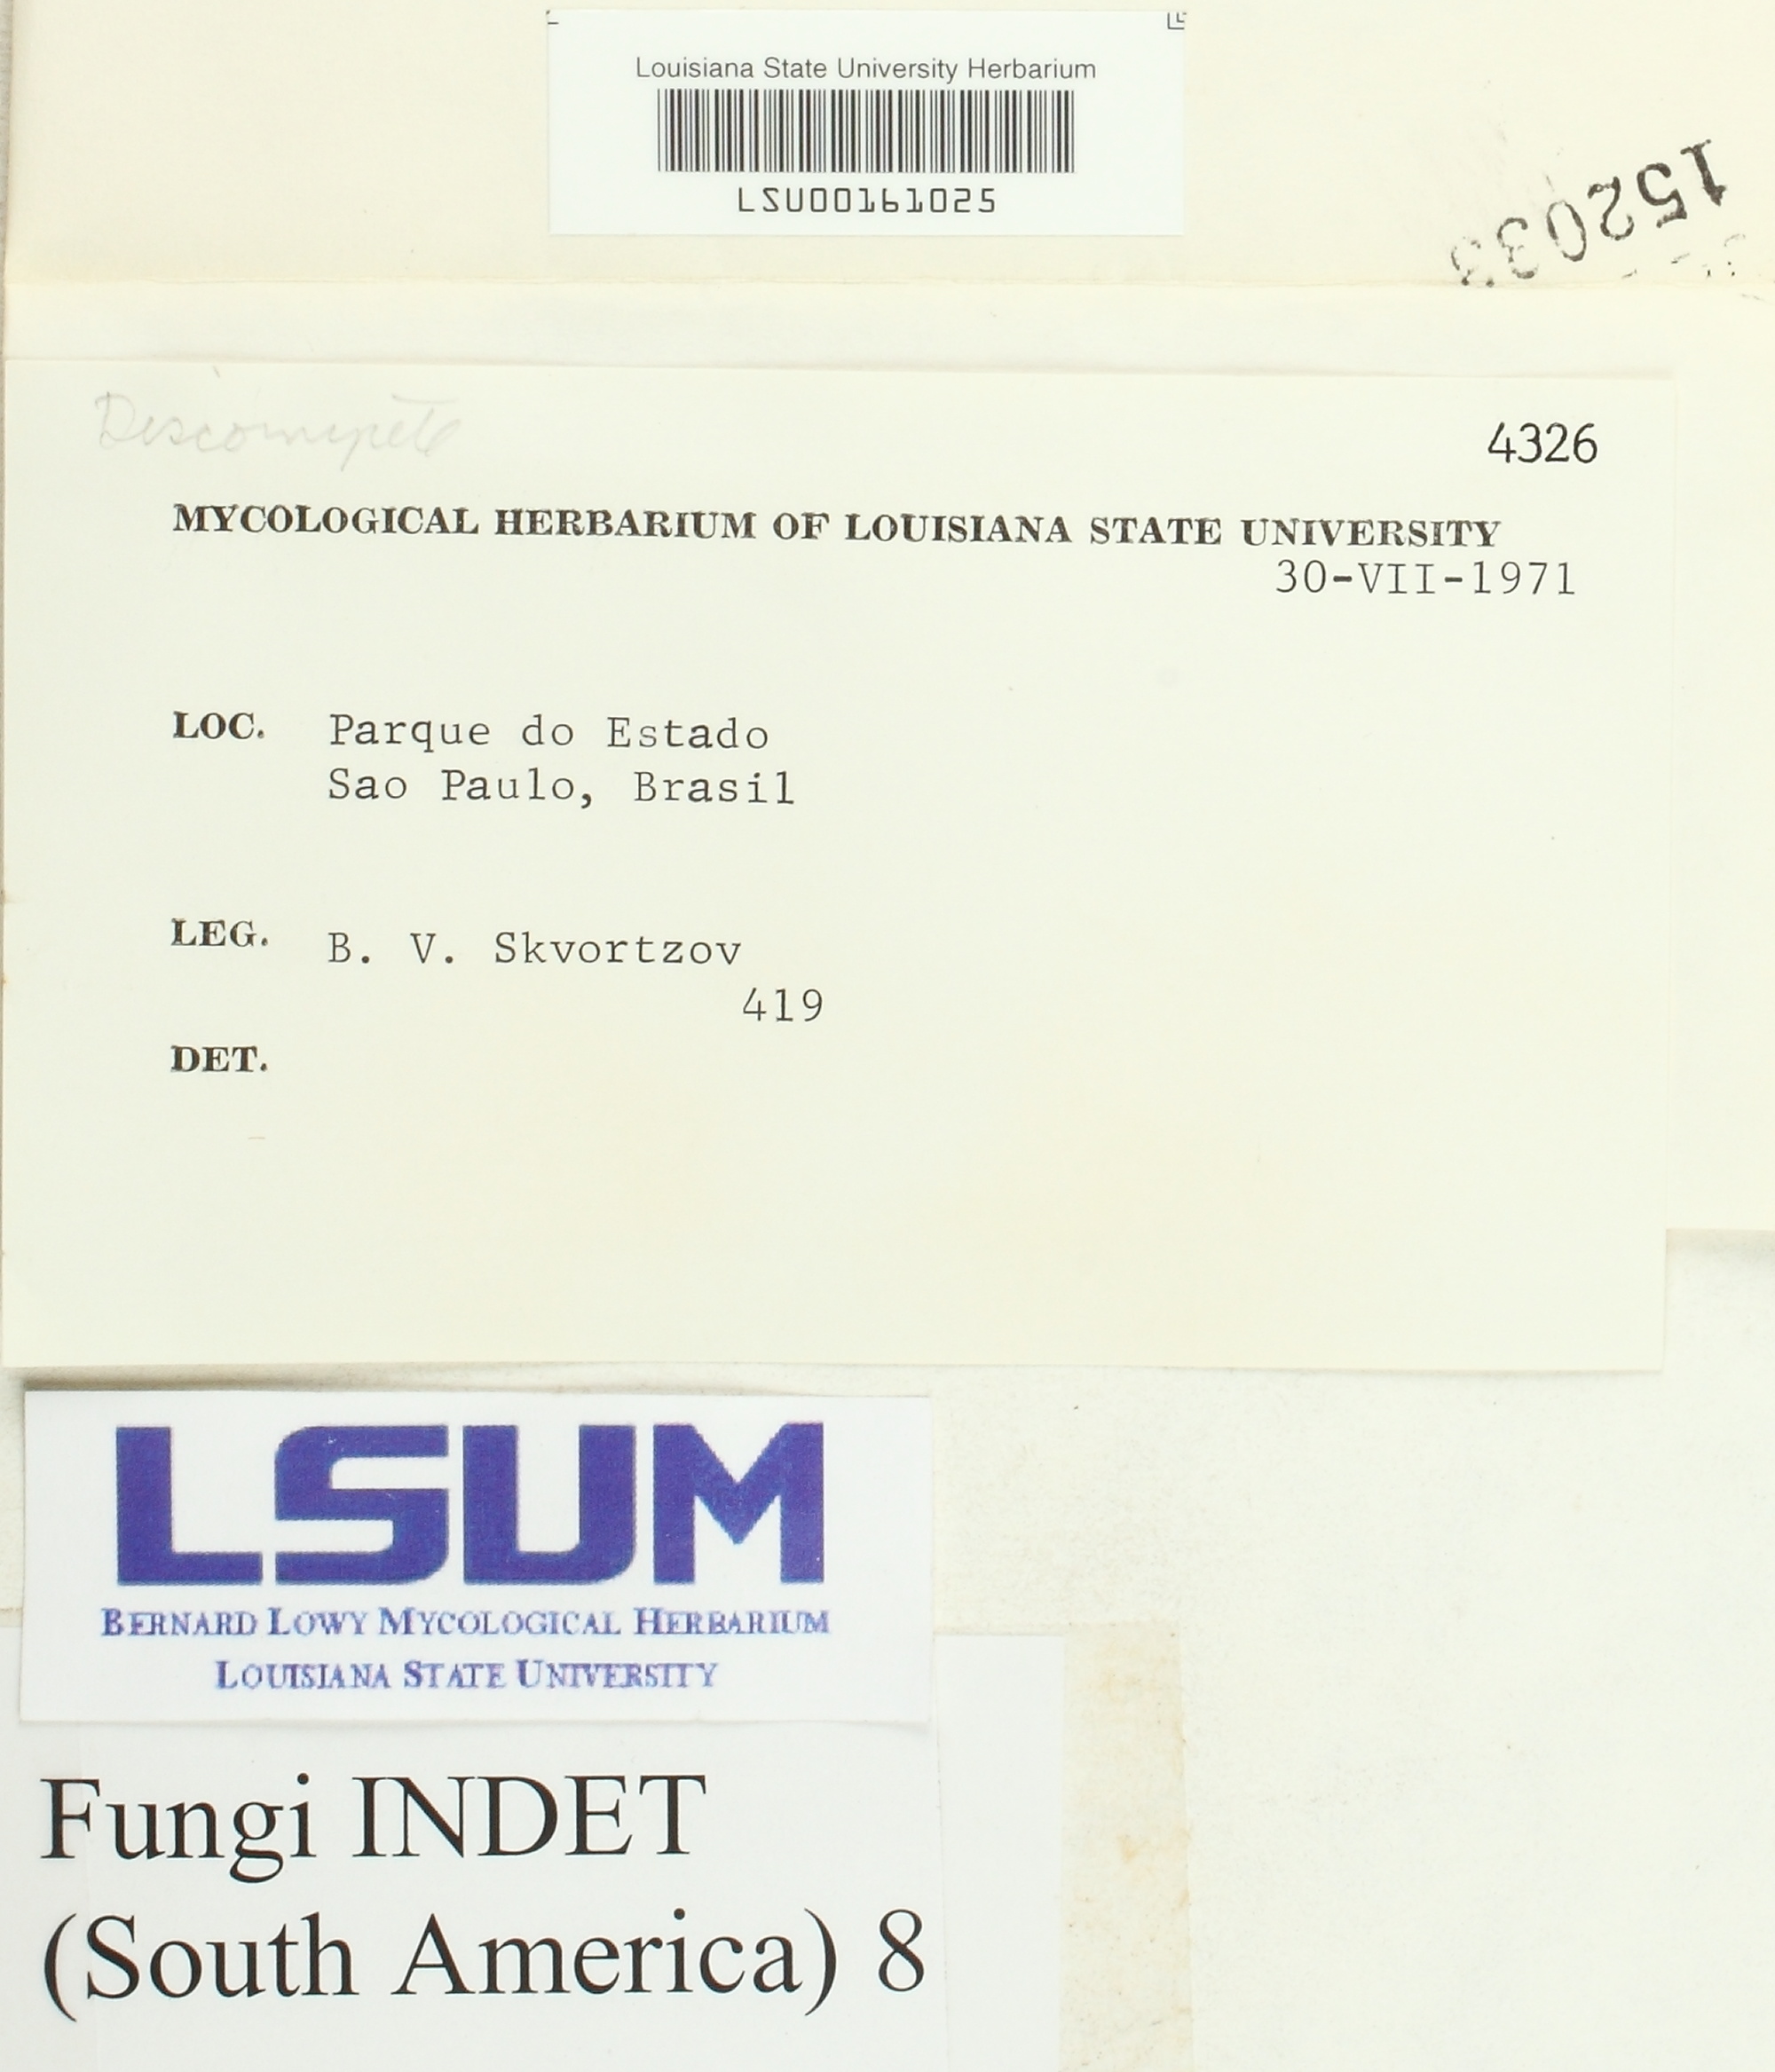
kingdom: Fungi
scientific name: Fungi
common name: Fungi
